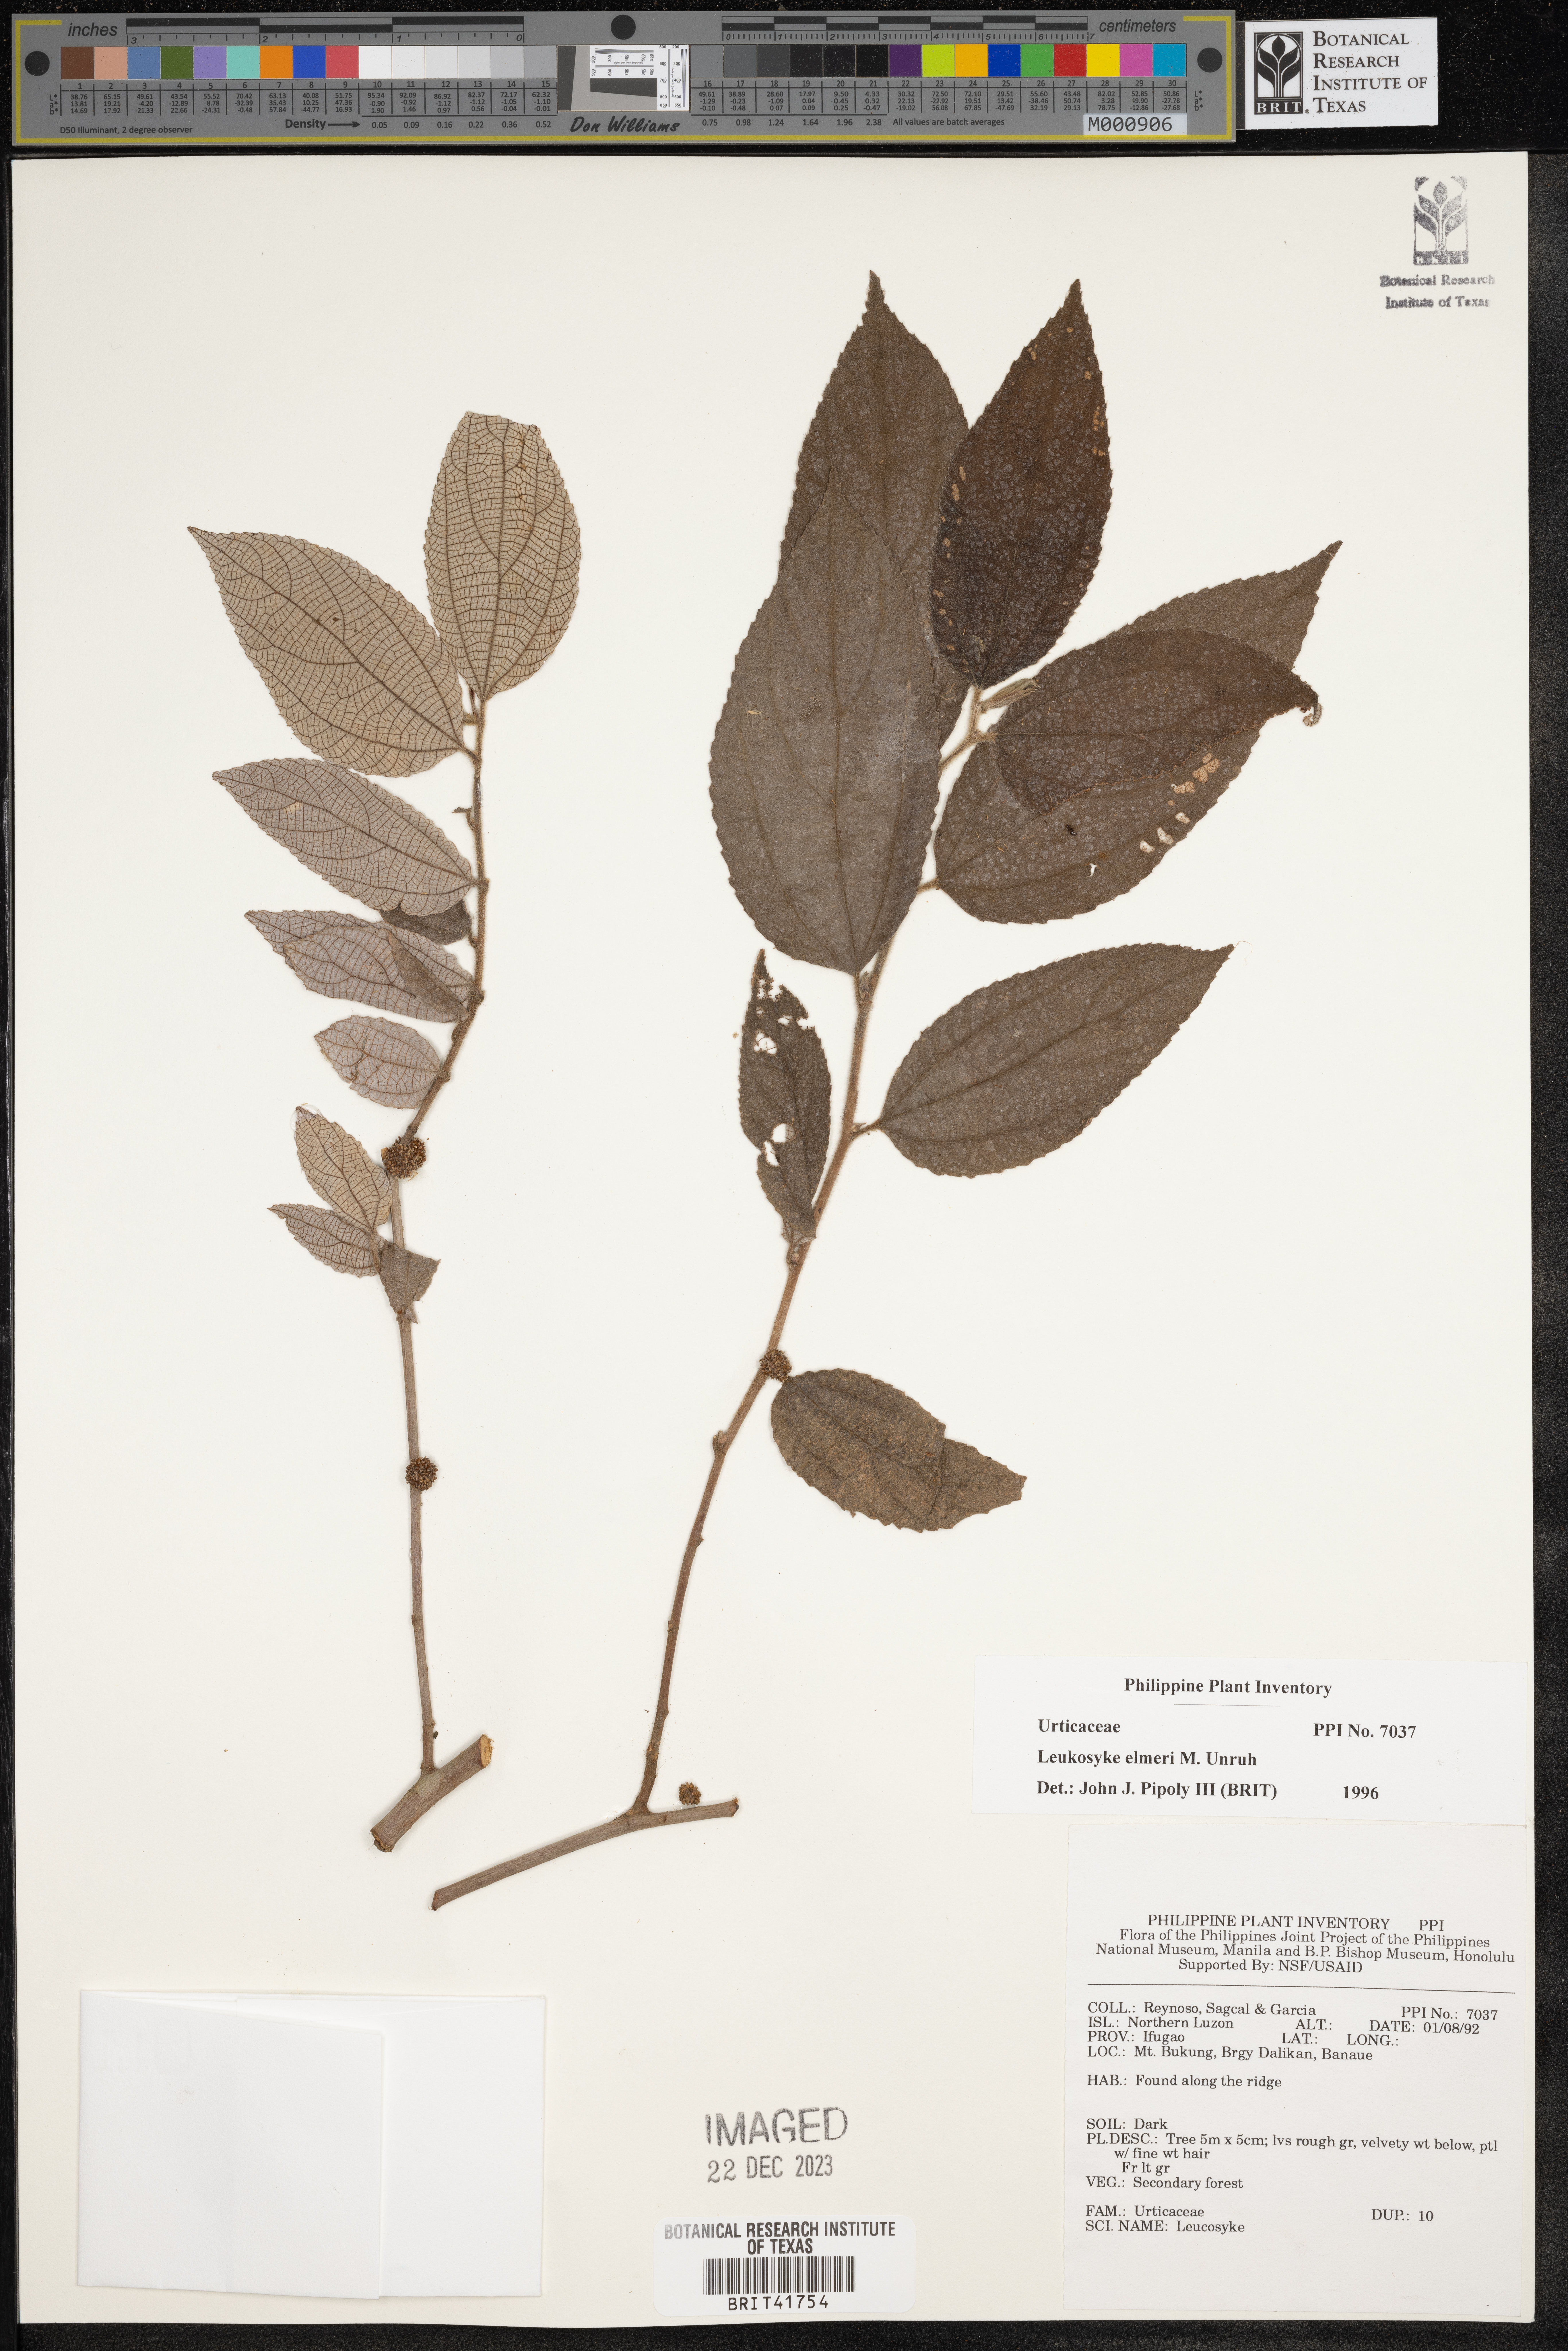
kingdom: Plantae
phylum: Tracheophyta
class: Magnoliopsida
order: Rosales
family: Urticaceae
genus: Leucosyke
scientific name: Leucosyke elmeri
